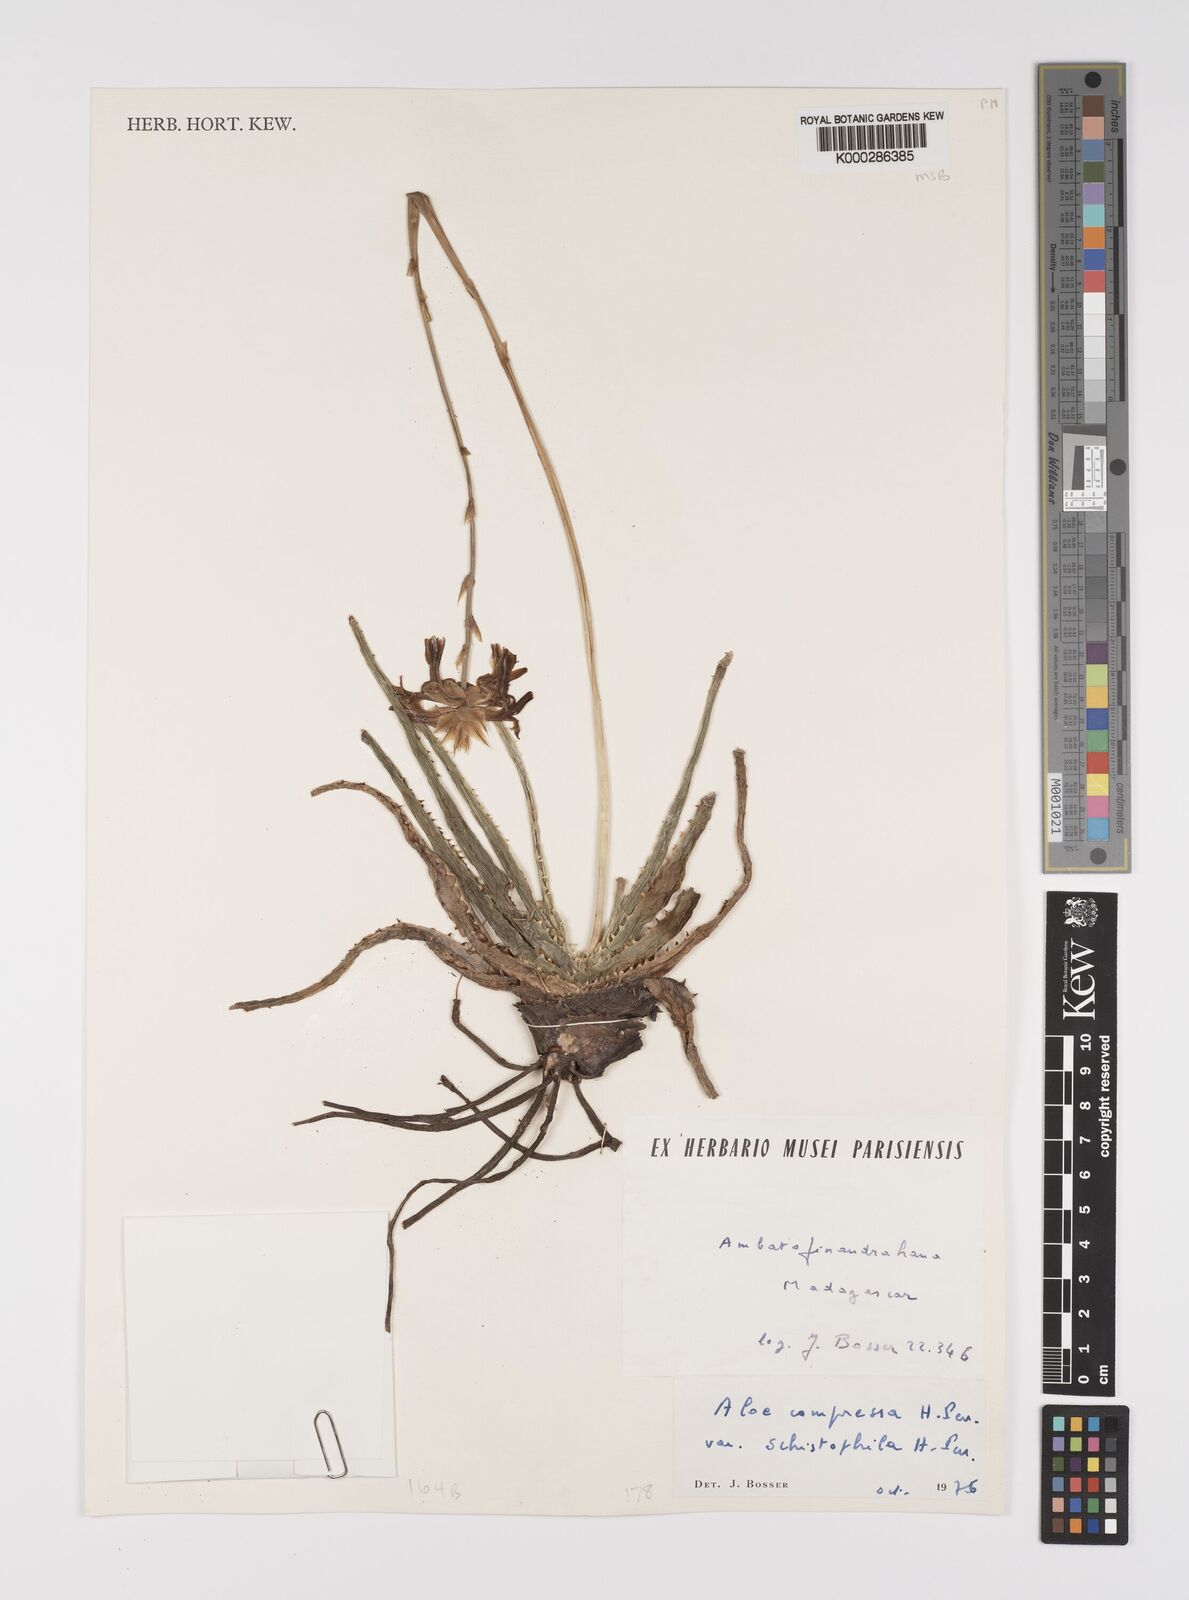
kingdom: Plantae
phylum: Tracheophyta
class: Liliopsida
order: Asparagales
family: Asphodelaceae
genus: Aloe
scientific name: Aloe
